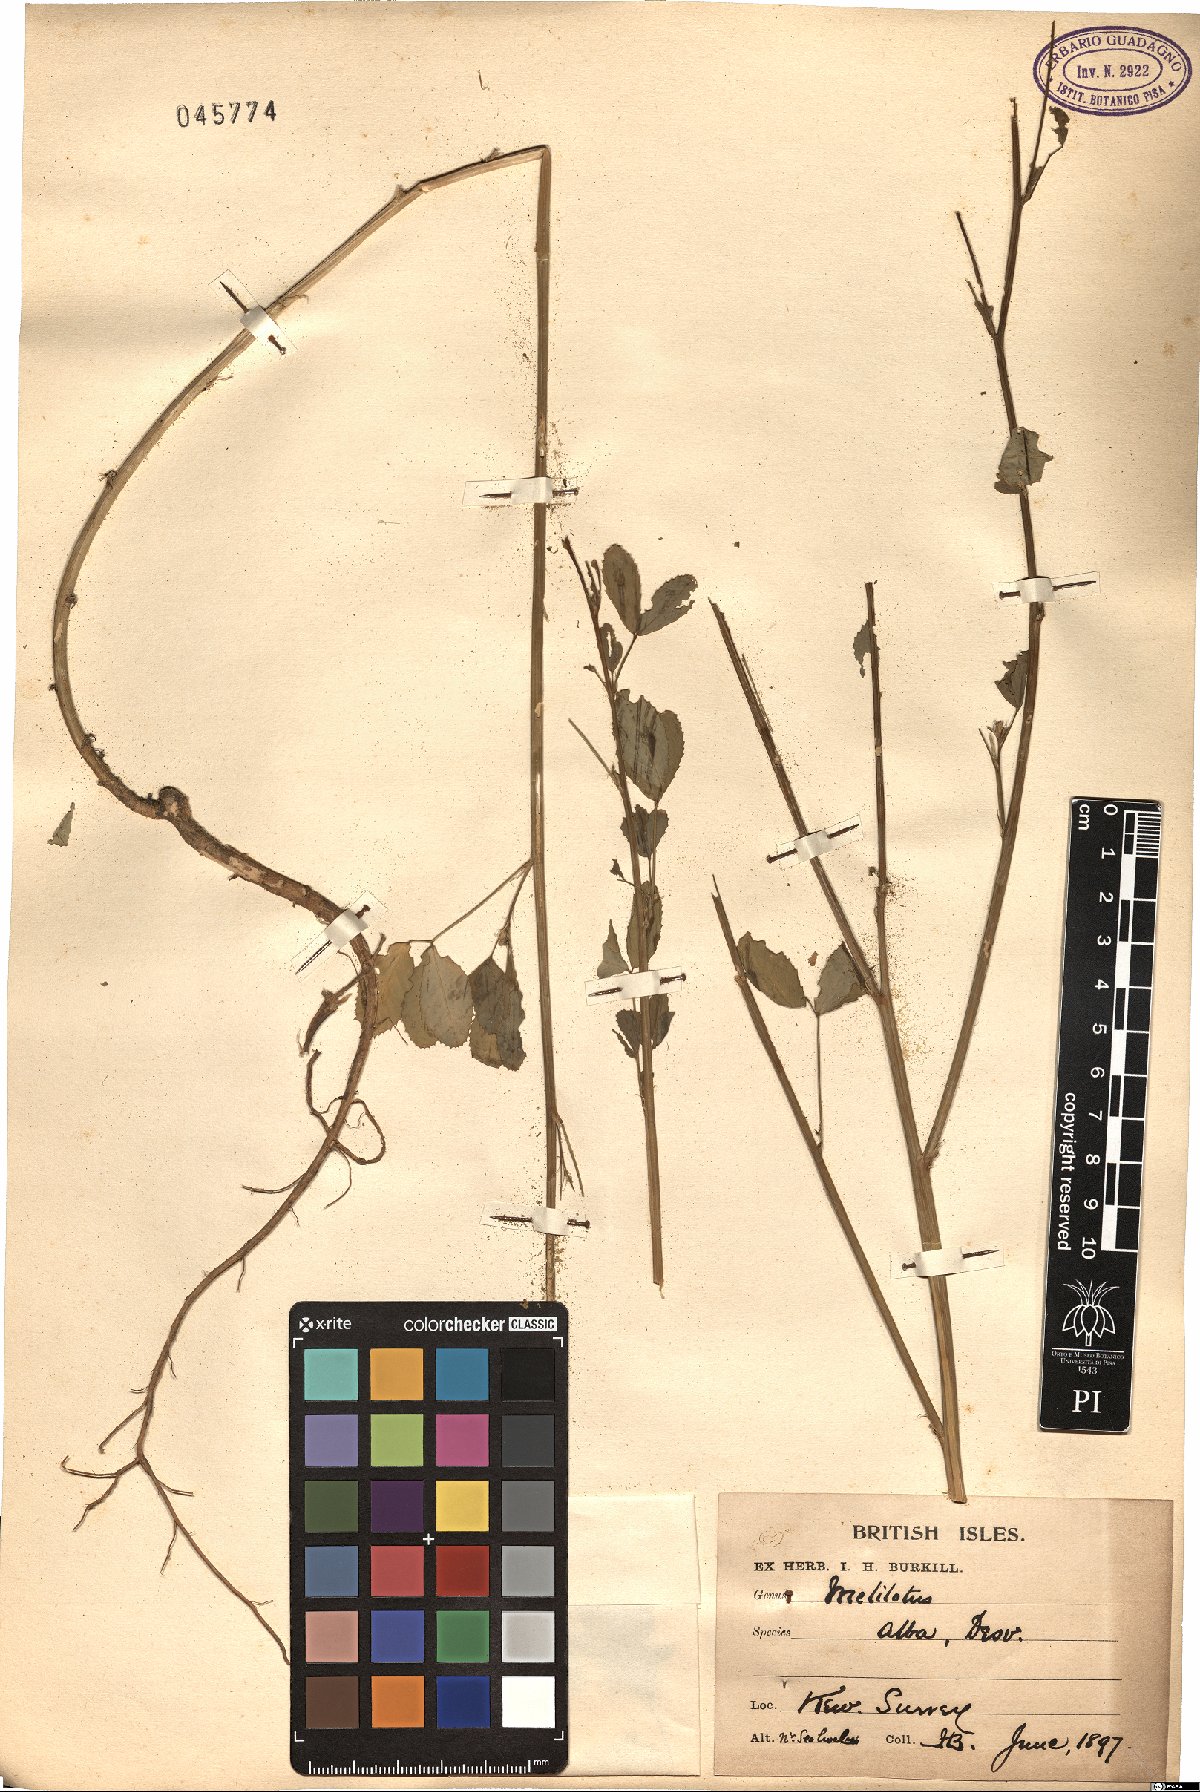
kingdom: Plantae
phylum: Tracheophyta
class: Magnoliopsida
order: Fabales
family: Fabaceae
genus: Melilotus
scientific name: Melilotus albus
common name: White melilot
